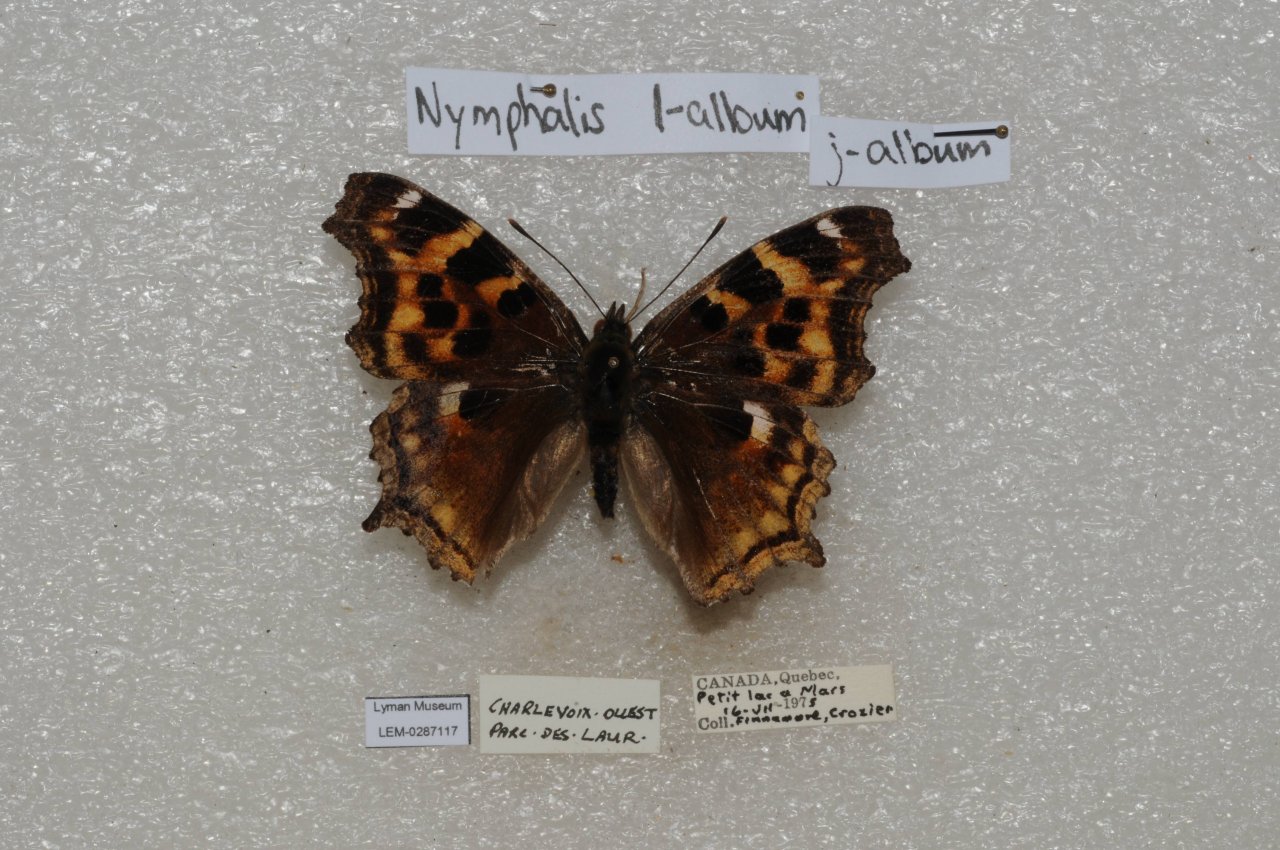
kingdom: Animalia
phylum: Arthropoda
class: Insecta
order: Lepidoptera
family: Nymphalidae
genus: Polygonia
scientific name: Polygonia vaualbum
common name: Compton Tortoiseshell
